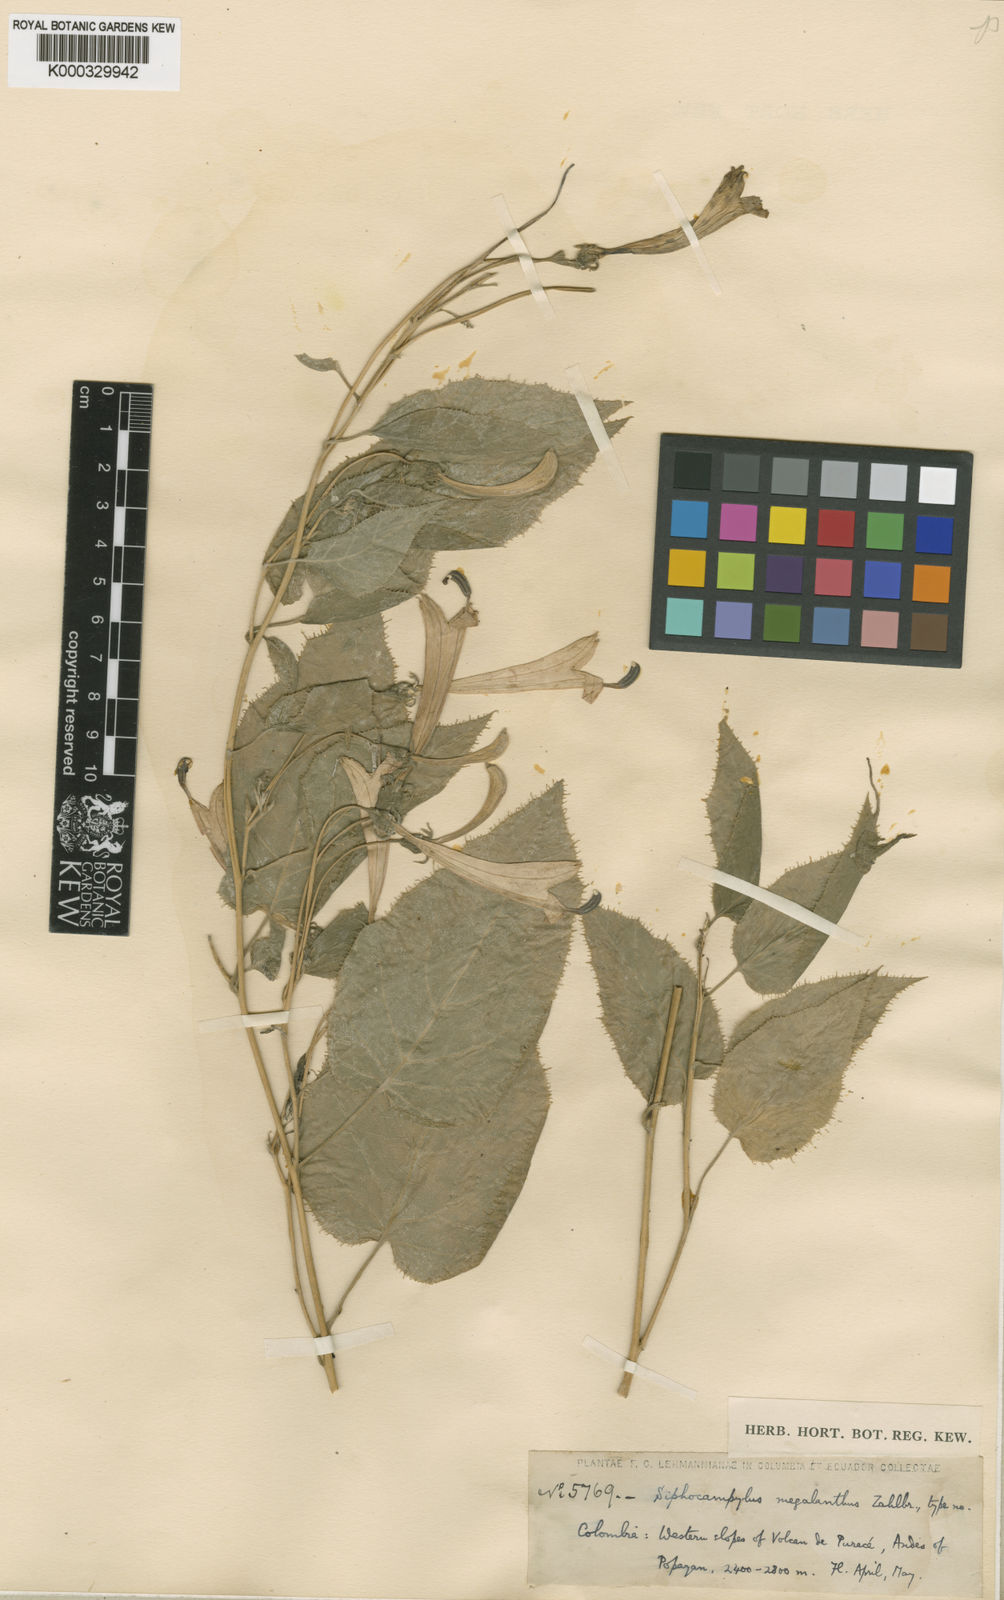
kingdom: Plantae
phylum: Tracheophyta
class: Magnoliopsida
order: Asterales
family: Campanulaceae
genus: Siphocampylus
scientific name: Siphocampylus megalanthus
